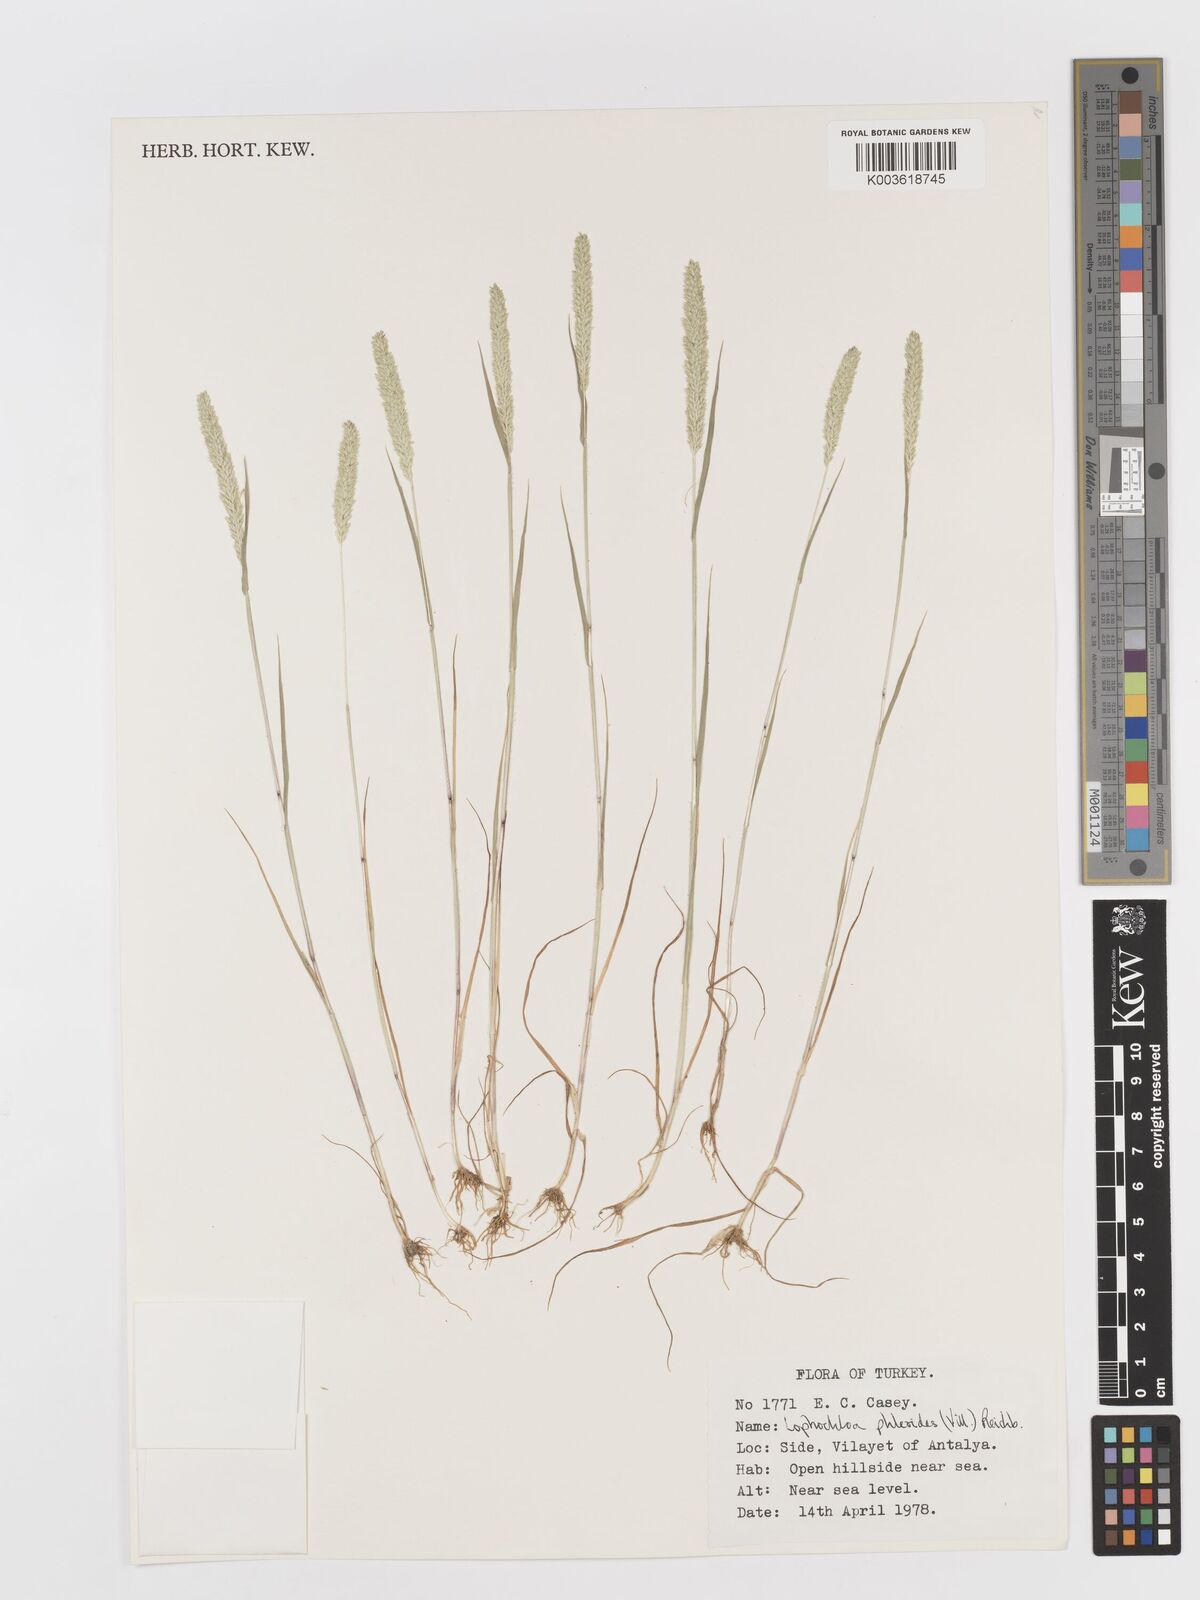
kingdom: Plantae
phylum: Tracheophyta
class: Liliopsida
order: Poales
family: Poaceae
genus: Rostraria
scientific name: Rostraria cristata
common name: Mediterranean hair-grass
